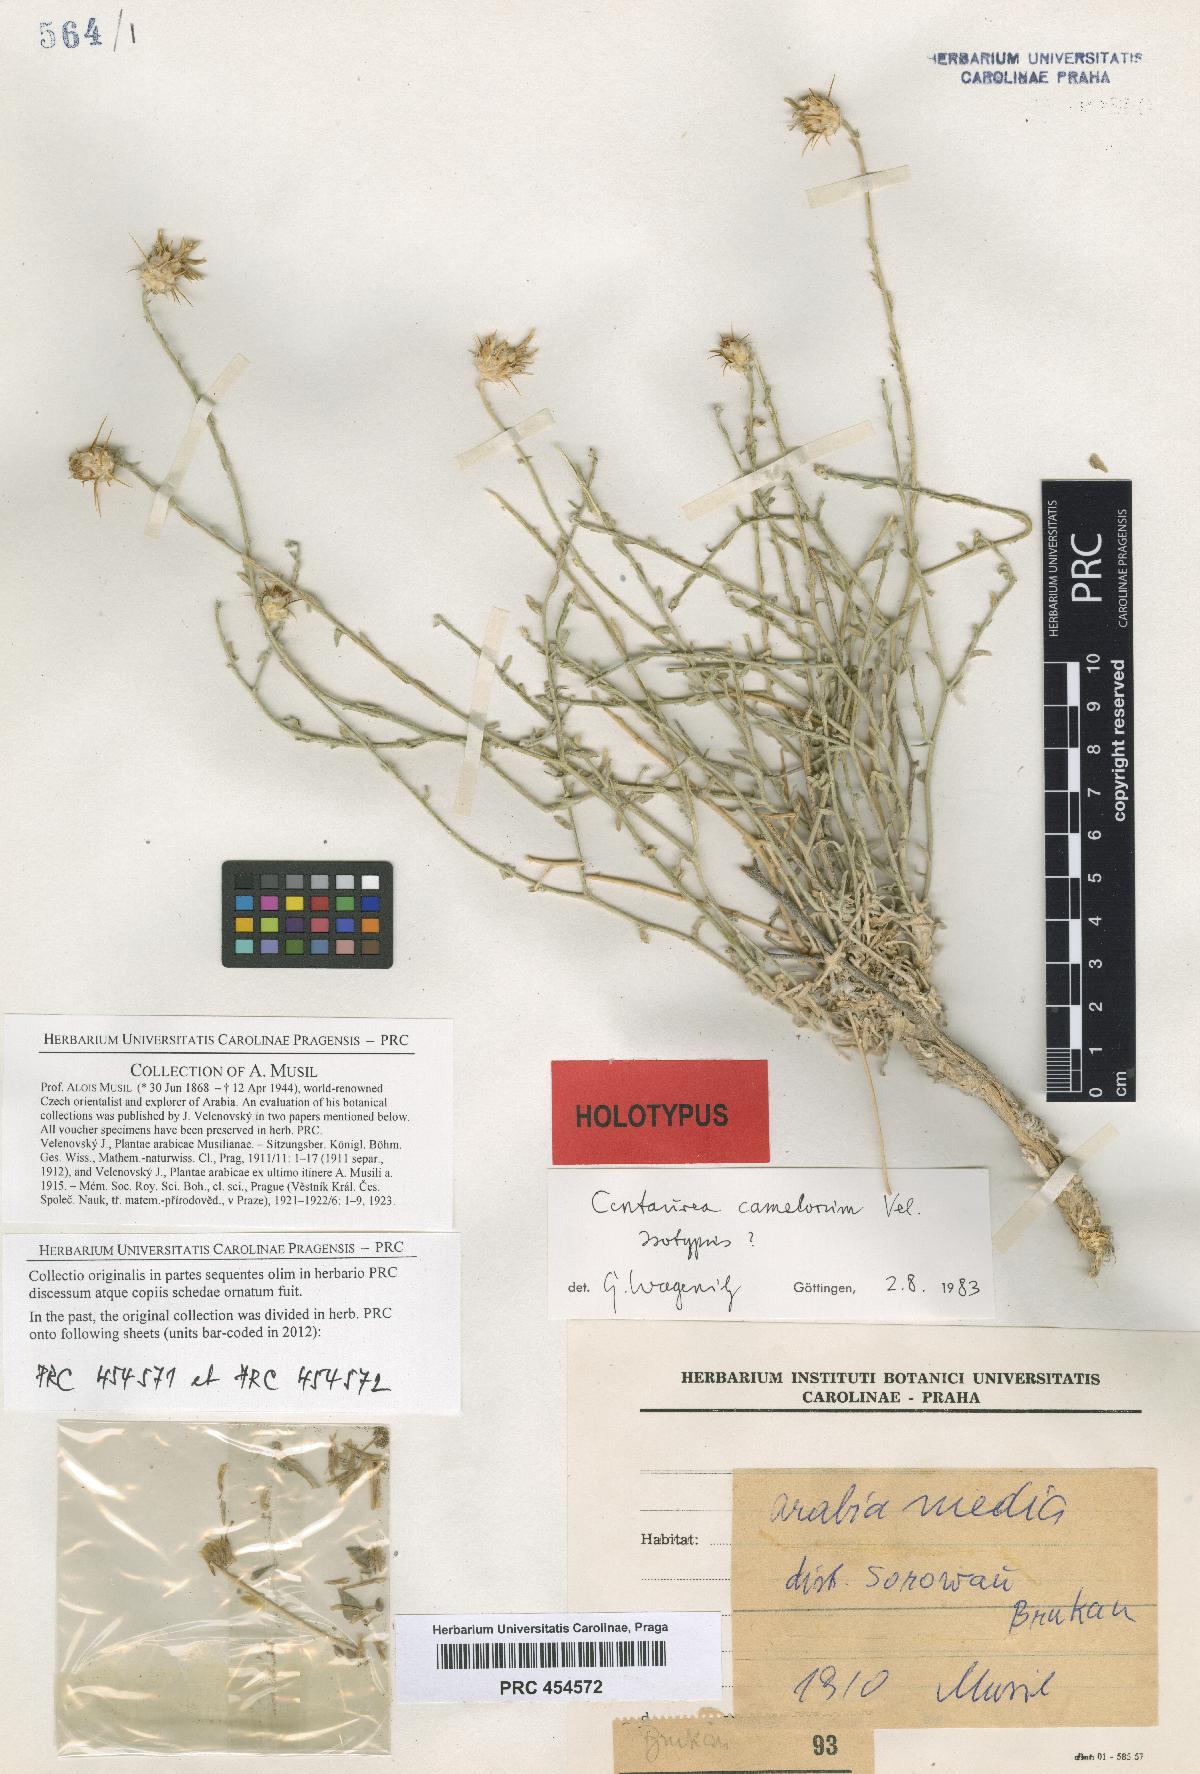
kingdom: Plantae
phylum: Tracheophyta
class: Magnoliopsida
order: Asterales
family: Asteraceae
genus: Centaurea
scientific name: Centaurea camelorum
